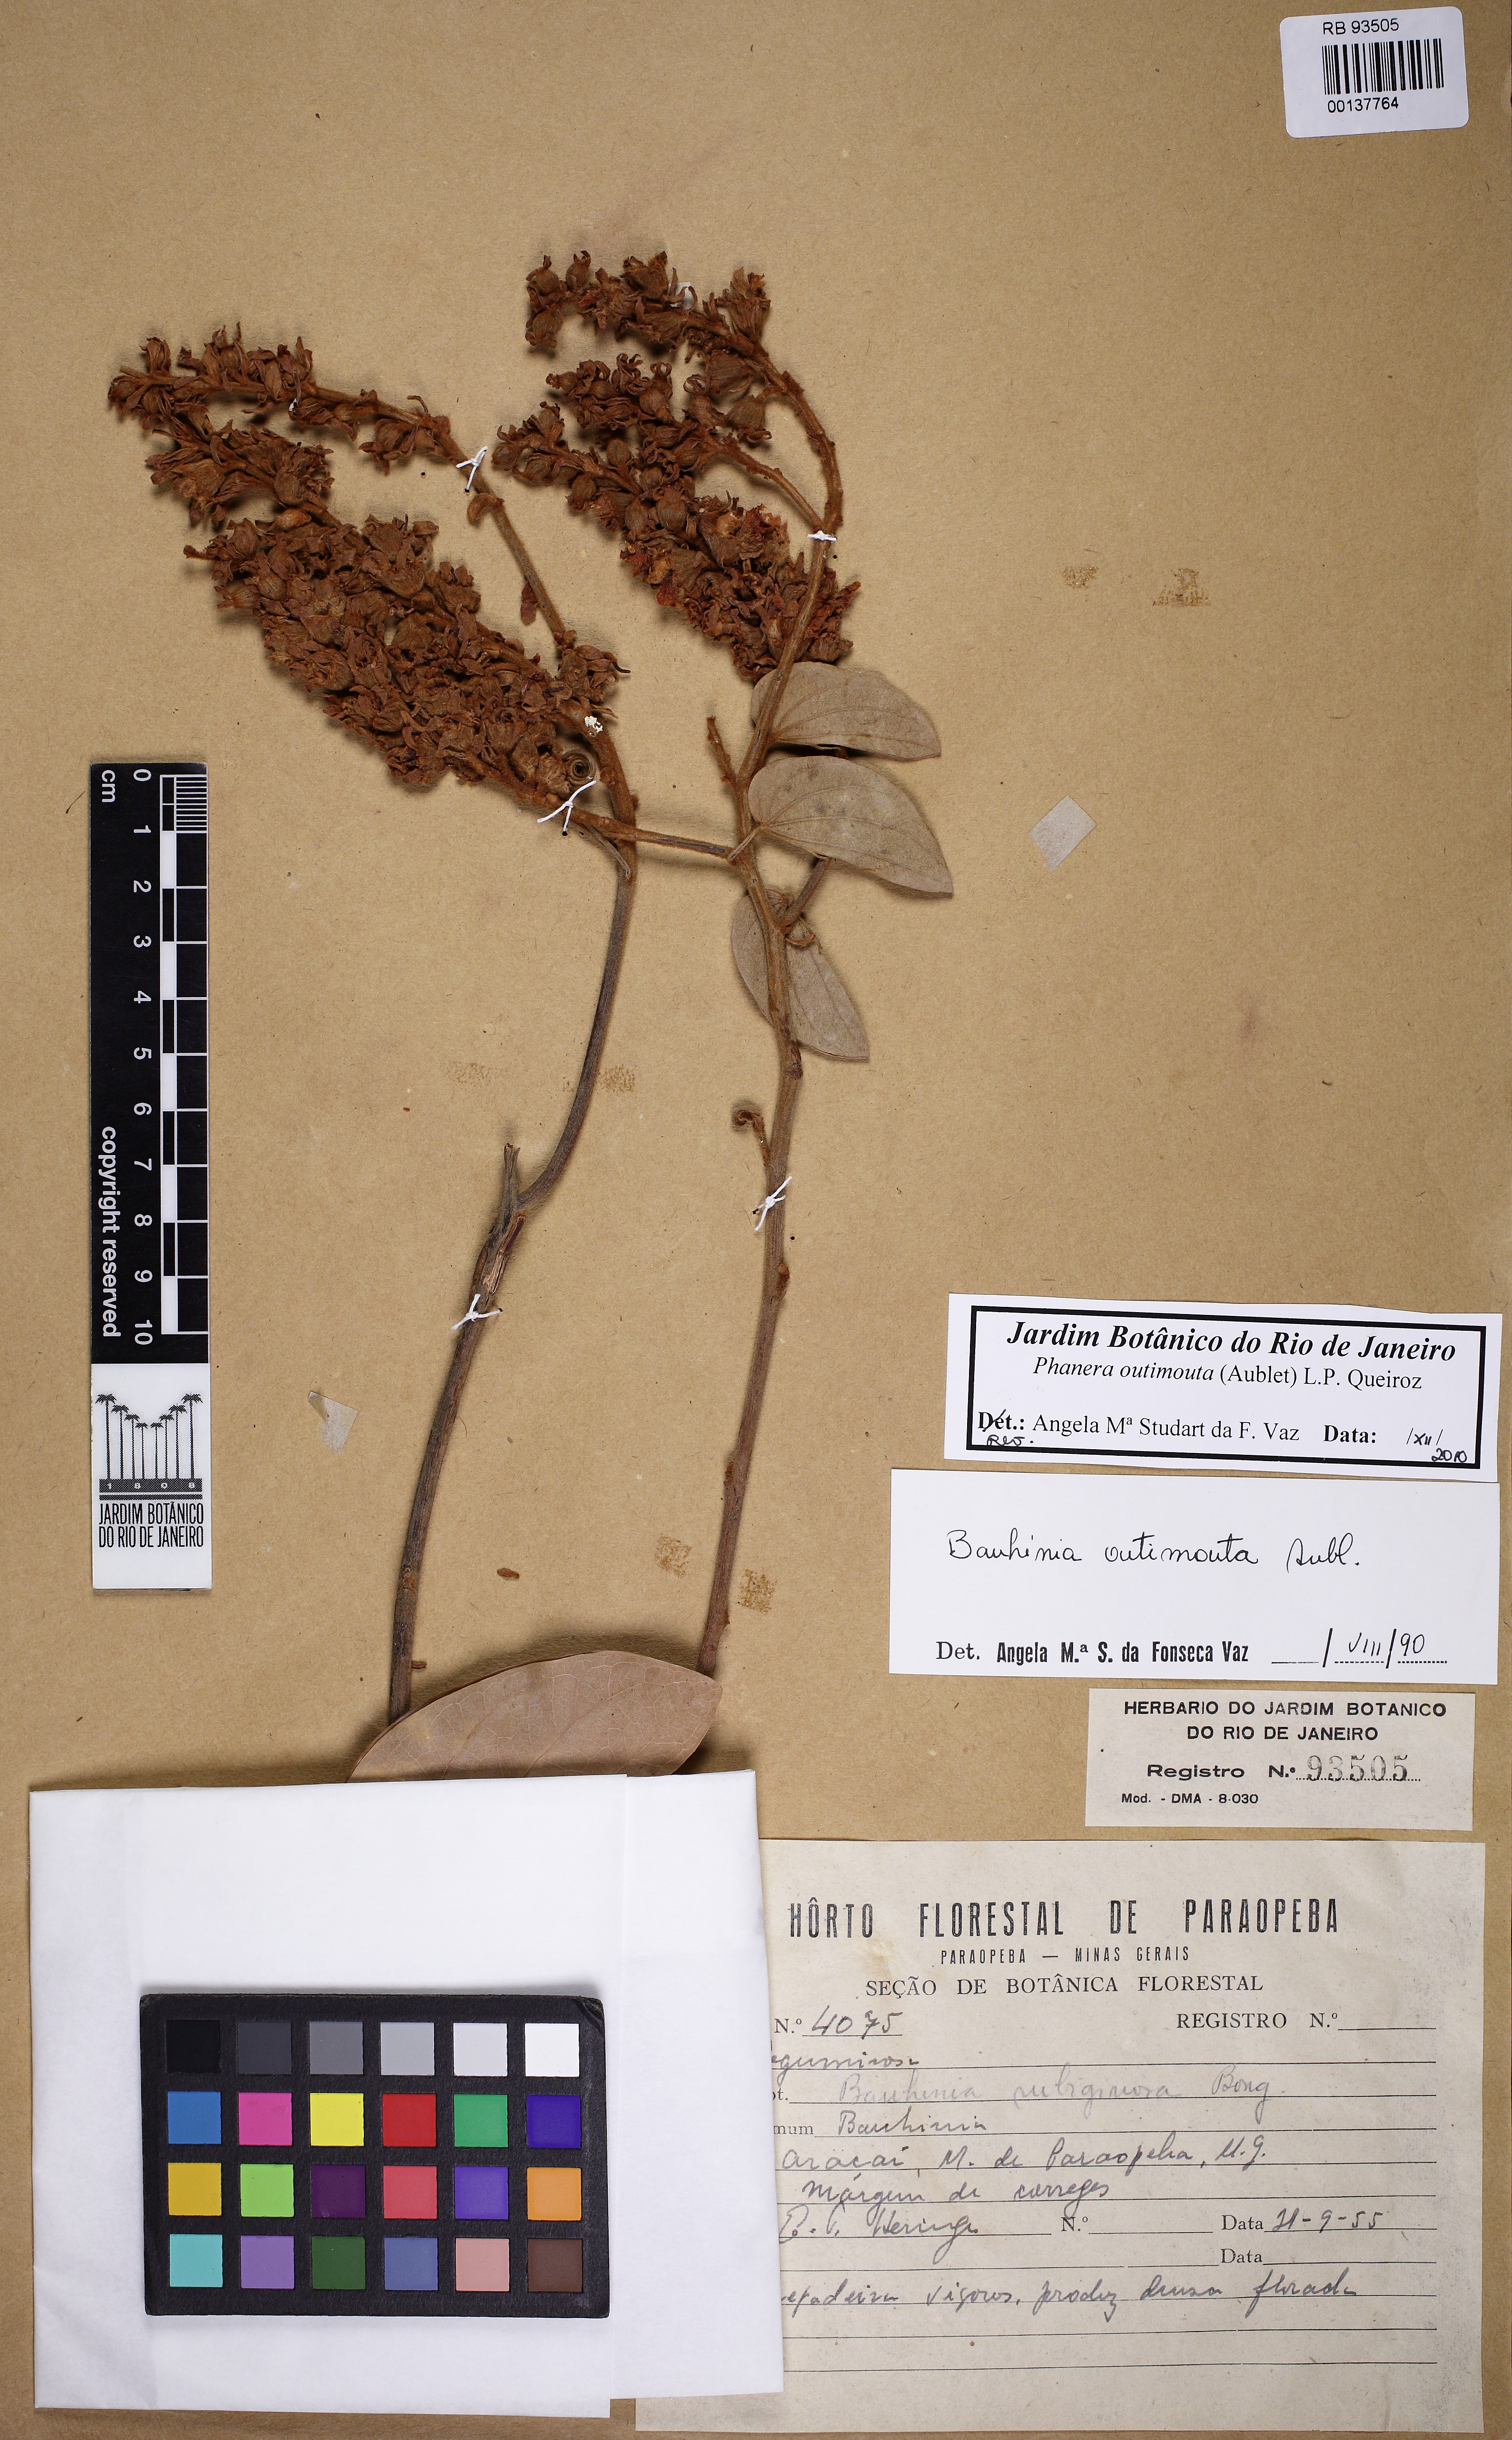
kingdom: Plantae
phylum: Tracheophyta
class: Magnoliopsida
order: Fabales
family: Fabaceae
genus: Schnella
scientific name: Schnella outimouta
